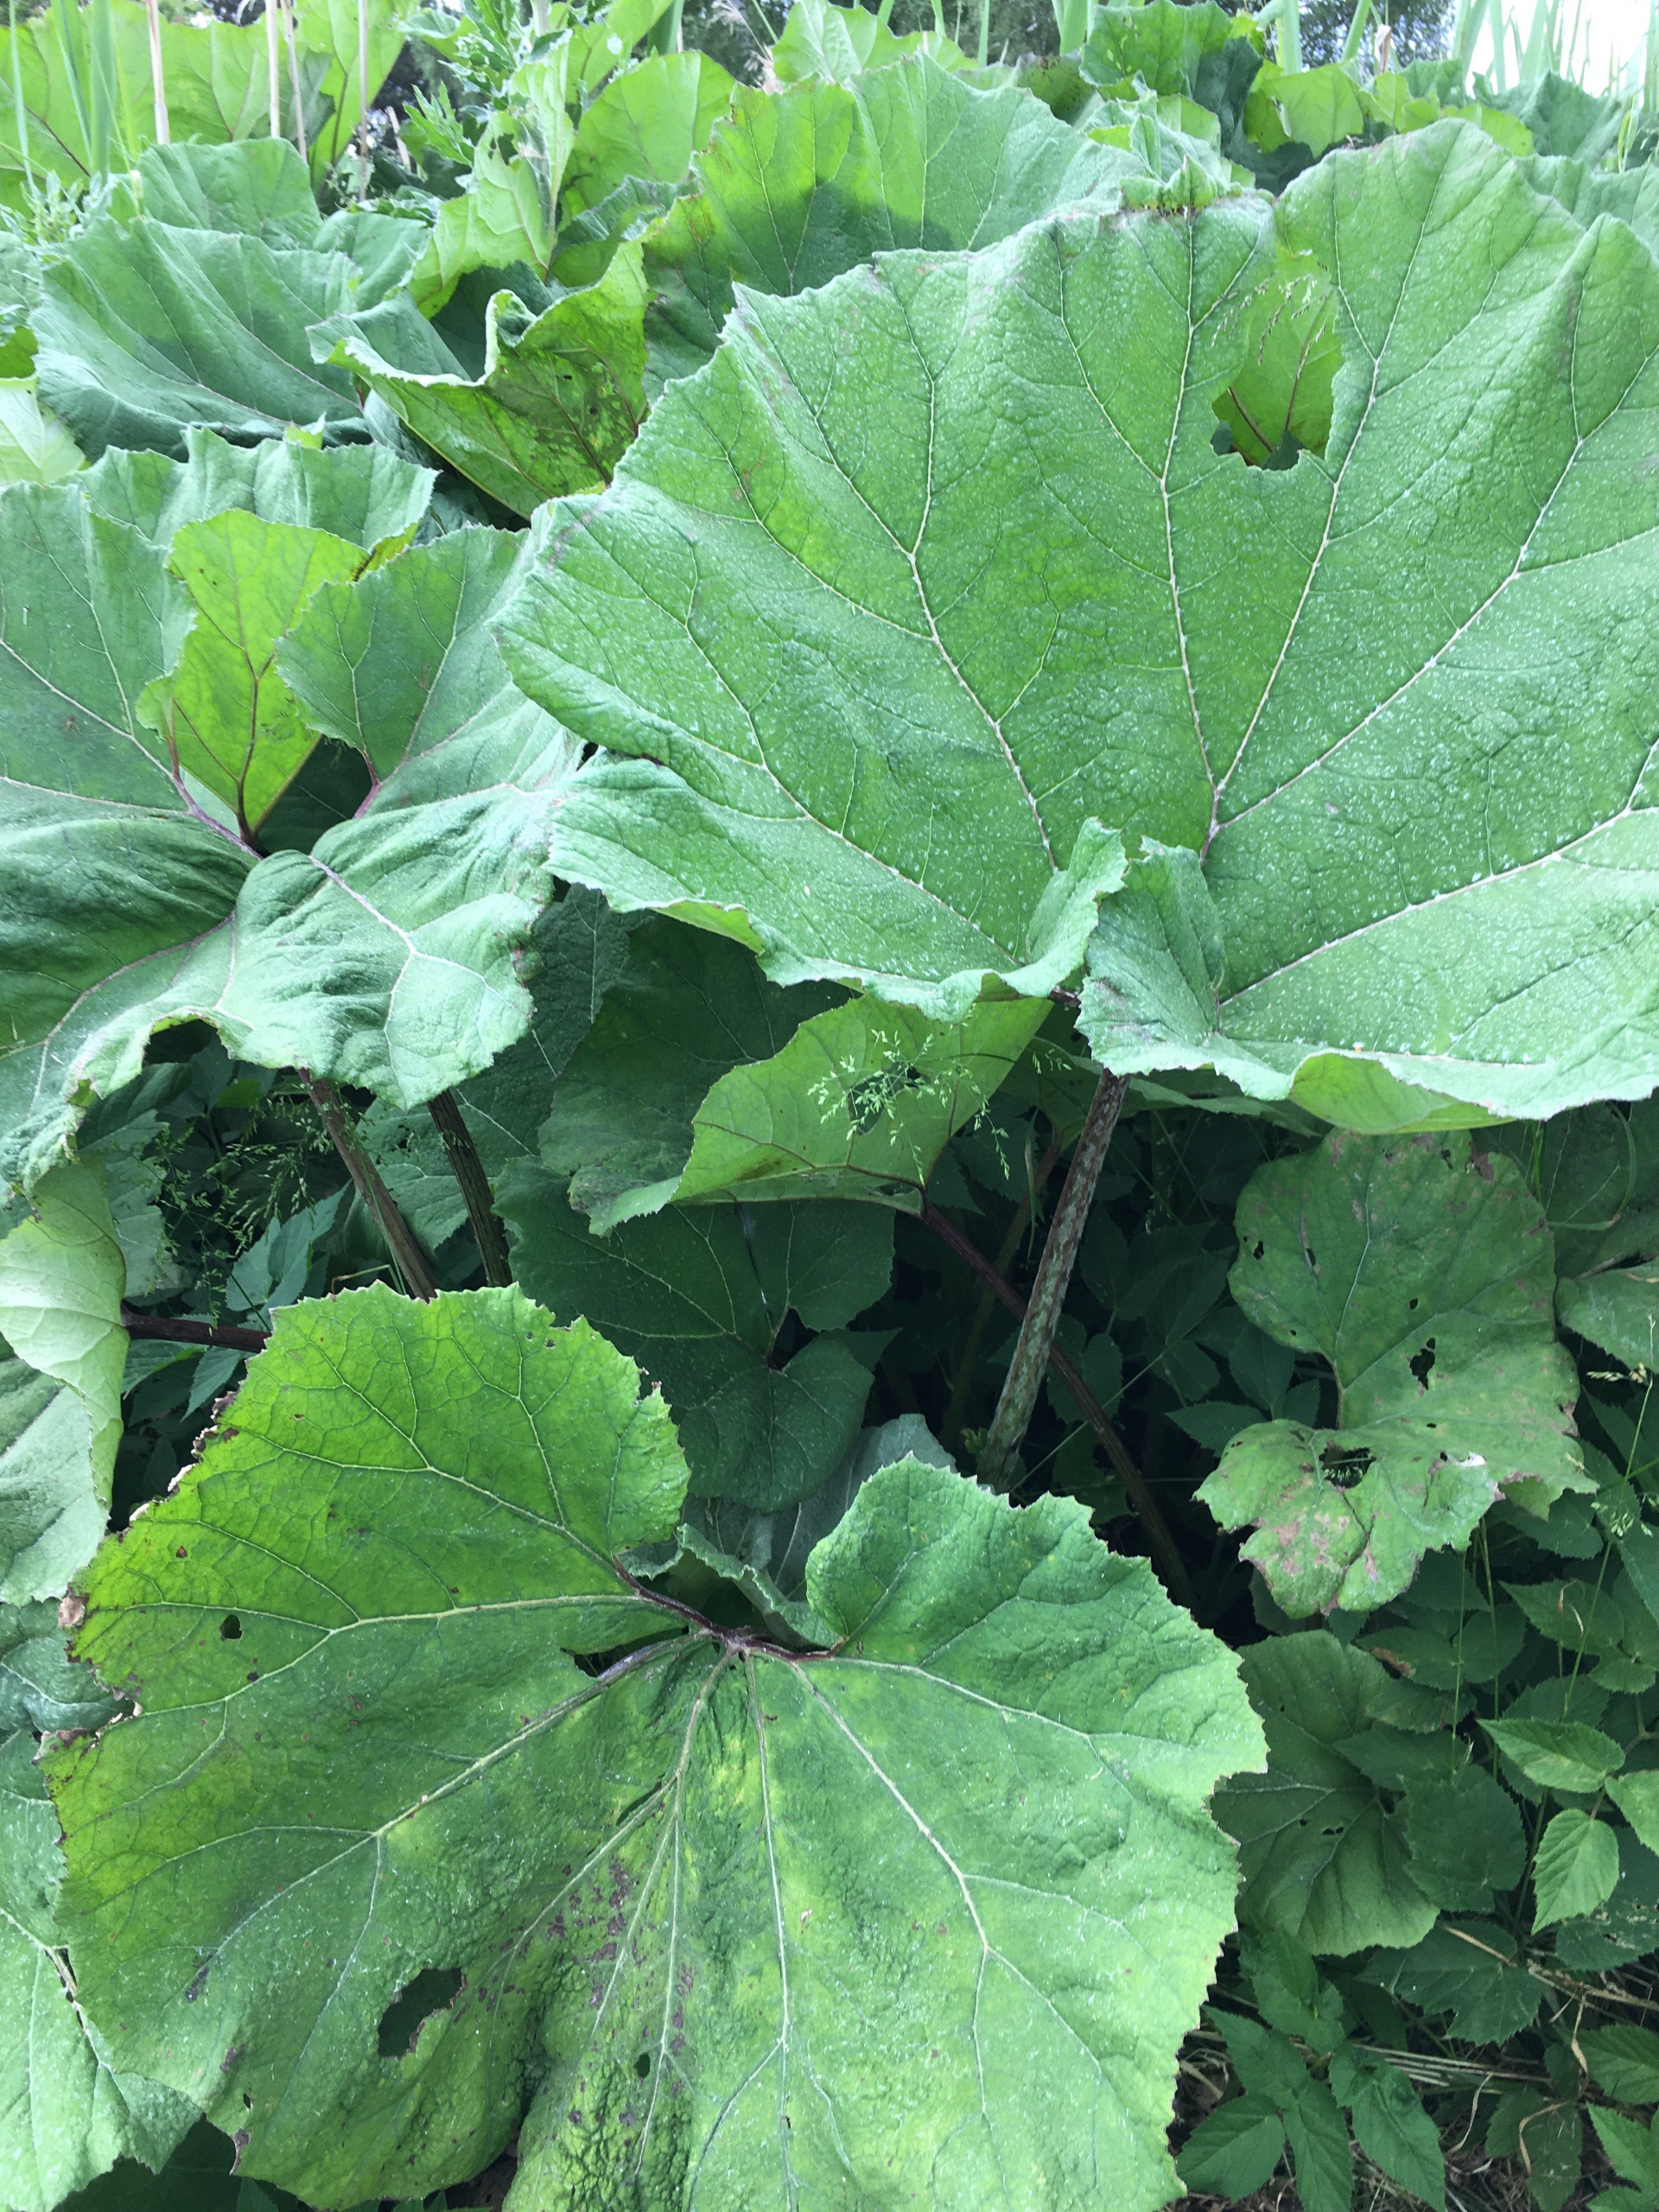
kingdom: Plantae
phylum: Tracheophyta
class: Magnoliopsida
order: Asterales
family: Asteraceae
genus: Petasites
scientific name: Petasites hybridus
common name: Rød hestehov
